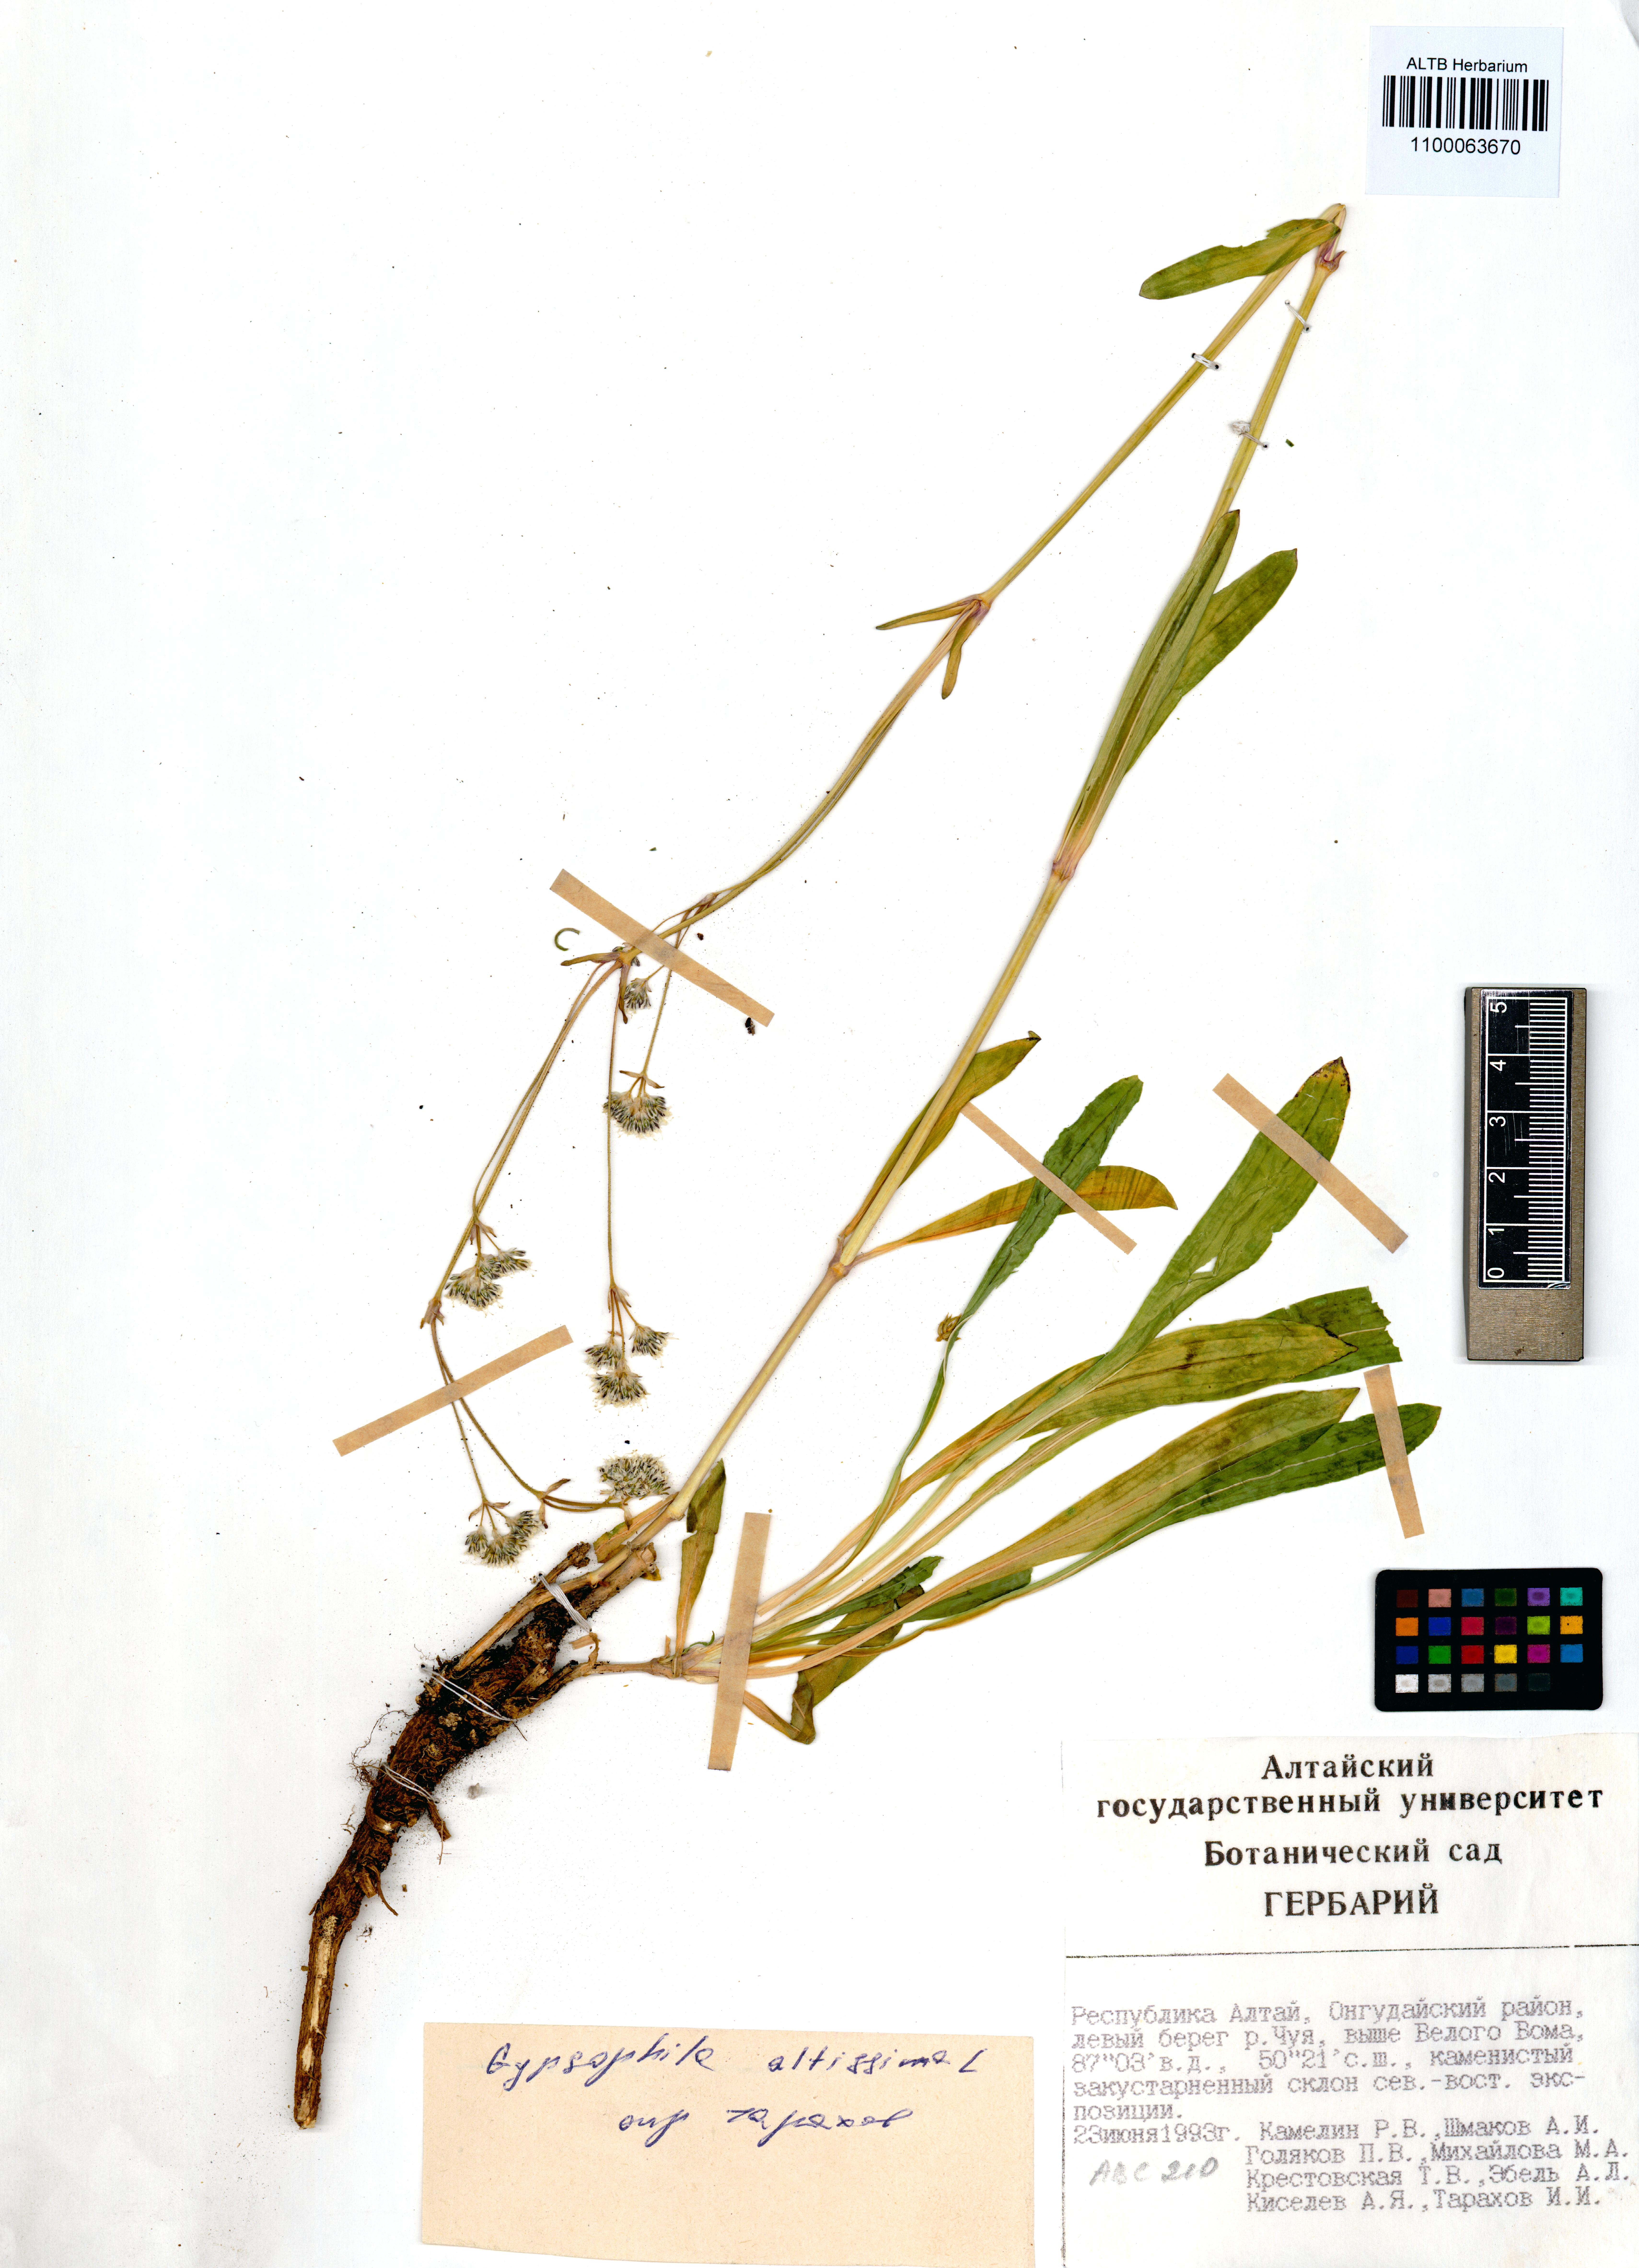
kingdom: Plantae
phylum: Tracheophyta
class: Magnoliopsida
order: Caryophyllales
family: Caryophyllaceae
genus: Gypsophila
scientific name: Gypsophila altissima
